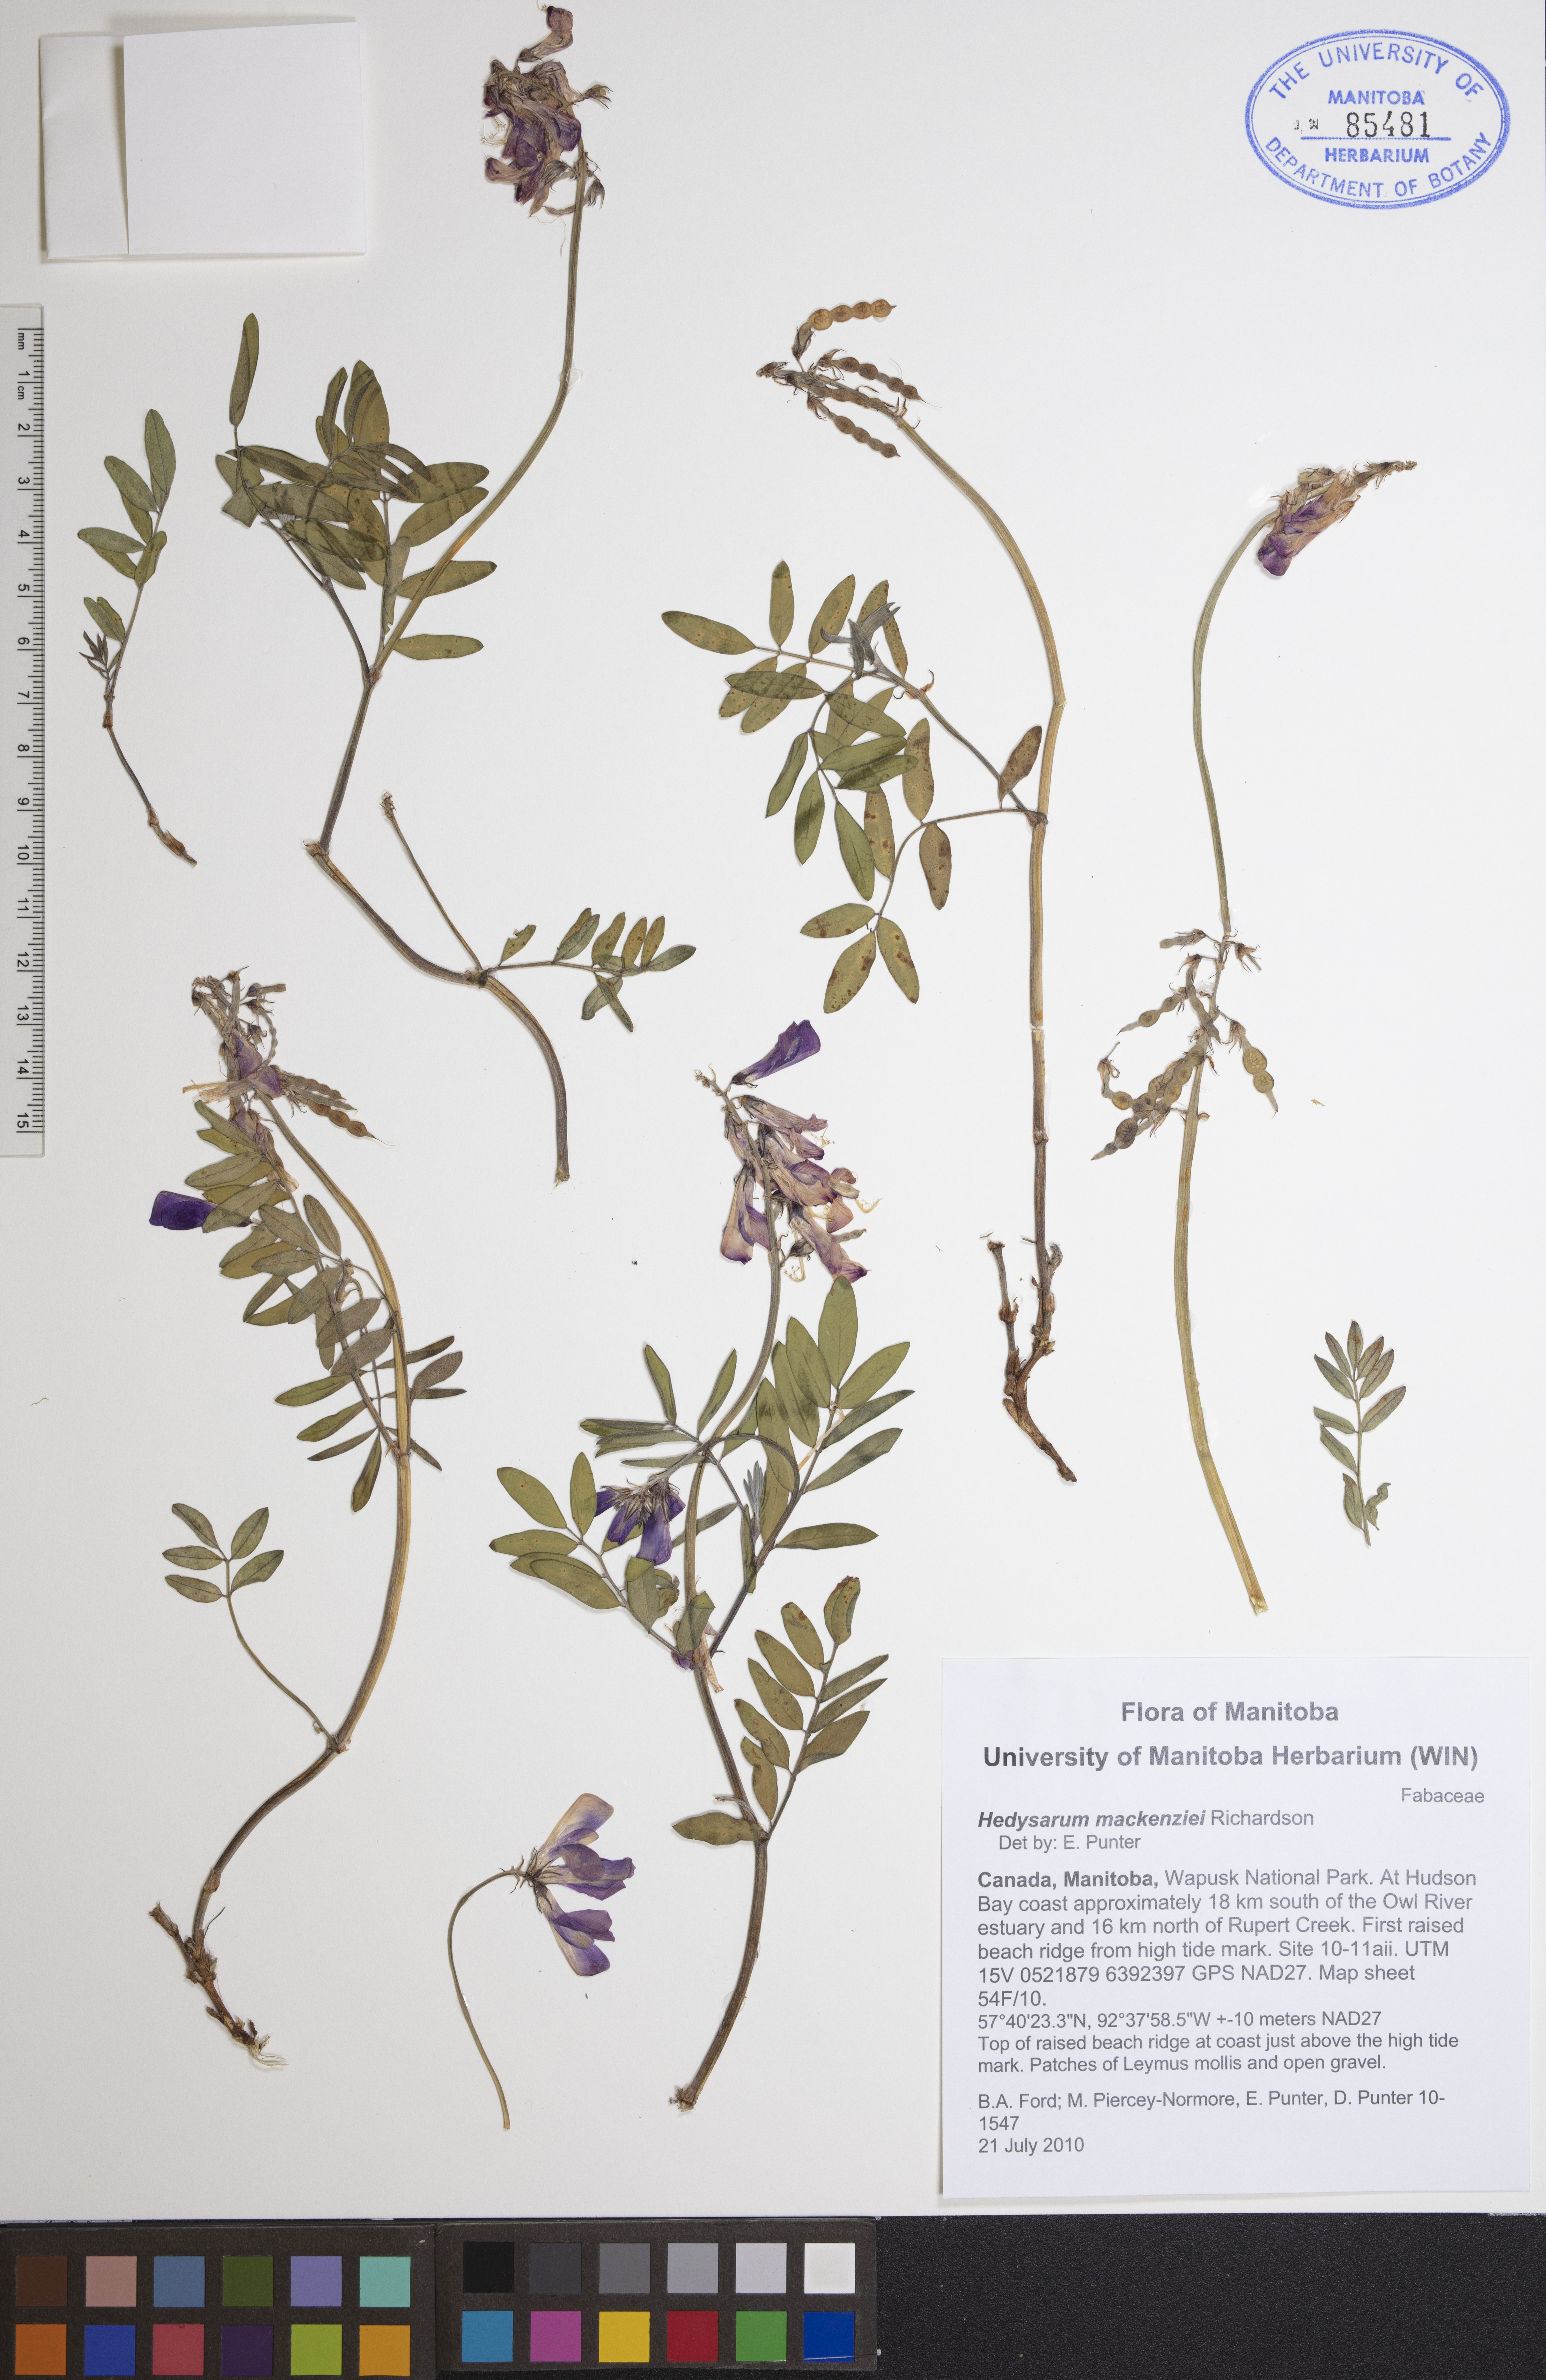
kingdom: Plantae
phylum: Tracheophyta
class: Magnoliopsida
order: Fabales
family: Fabaceae
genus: Hedysarum
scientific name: Hedysarum boreale
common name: Northern sweet-vetch
